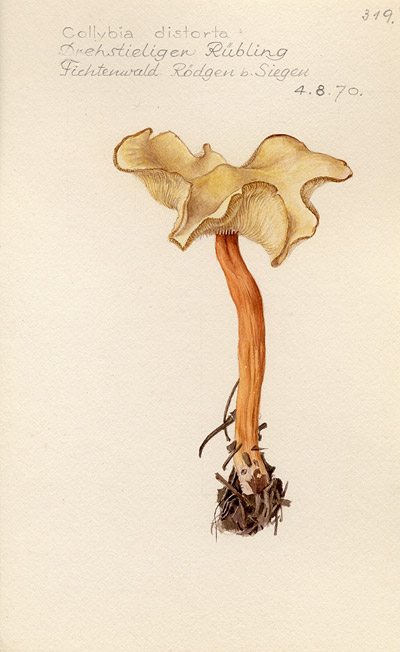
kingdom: Fungi
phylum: Basidiomycota
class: Agaricomycetes
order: Agaricales
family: Omphalotaceae
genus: Rhodocollybia
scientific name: Rhodocollybia prolixa
